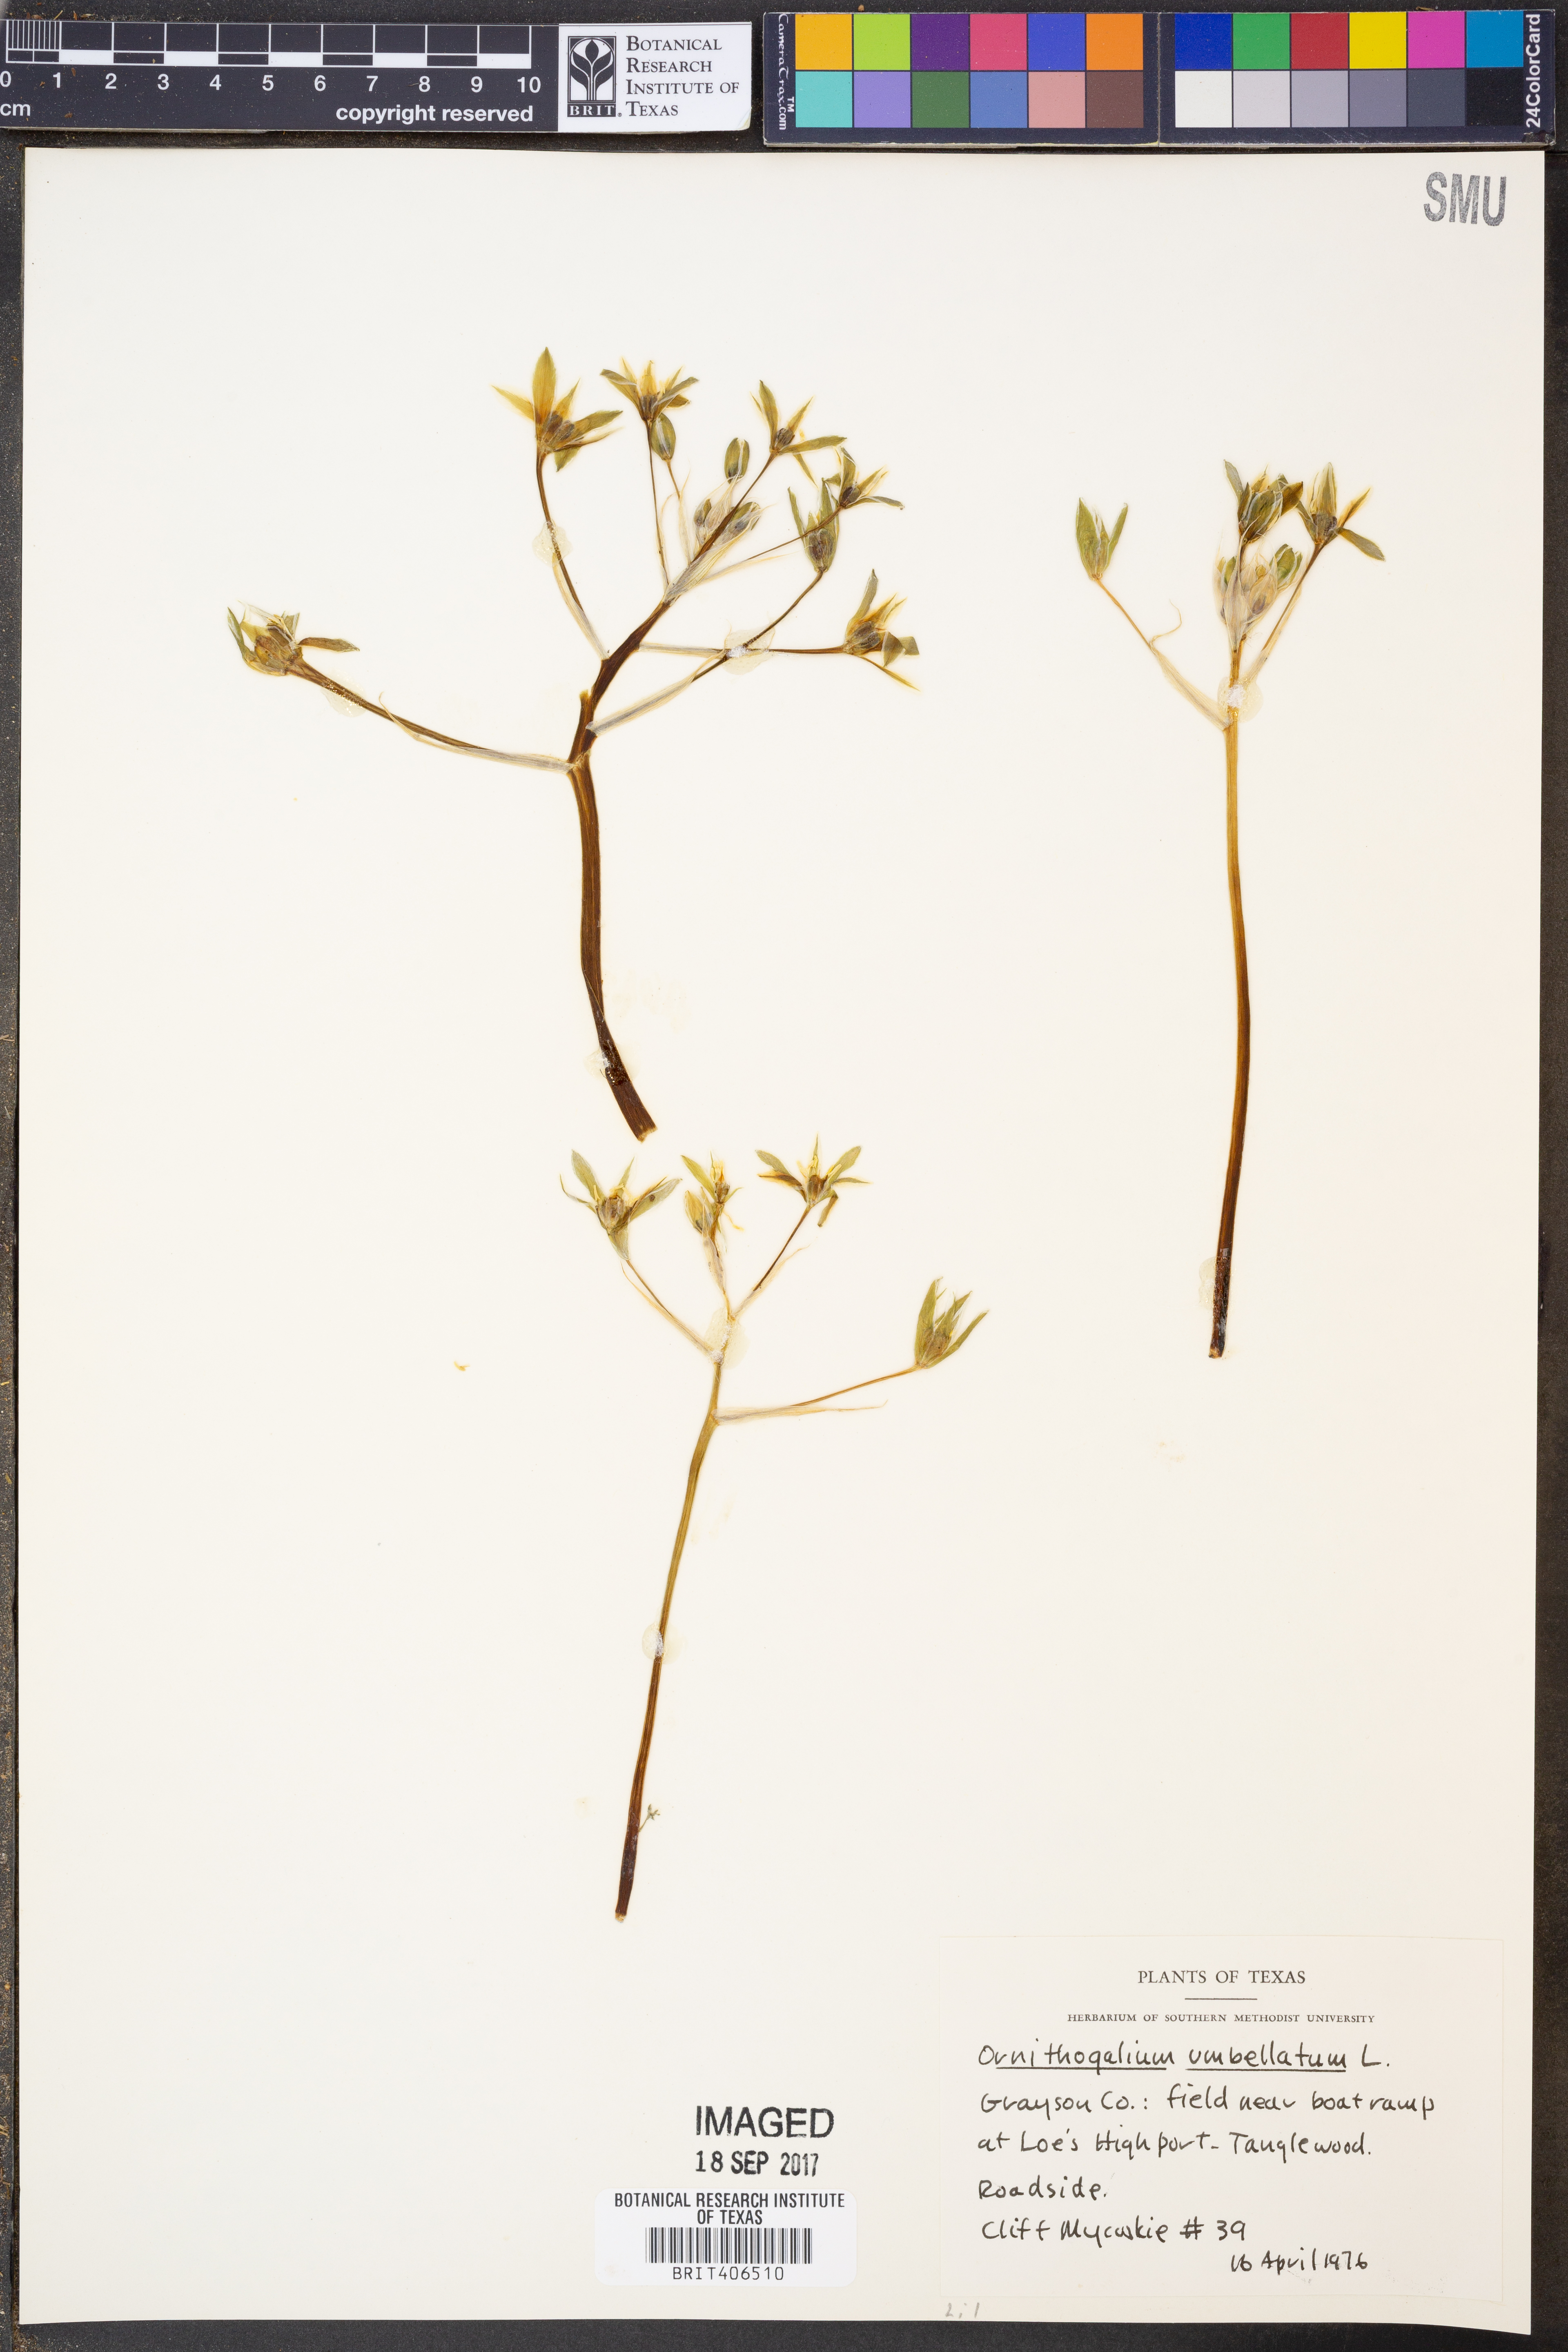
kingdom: Plantae
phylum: Tracheophyta
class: Liliopsida
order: Asparagales
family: Asparagaceae
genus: Ornithogalum
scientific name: Ornithogalum umbellatum
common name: Garden star-of-bethlehem
